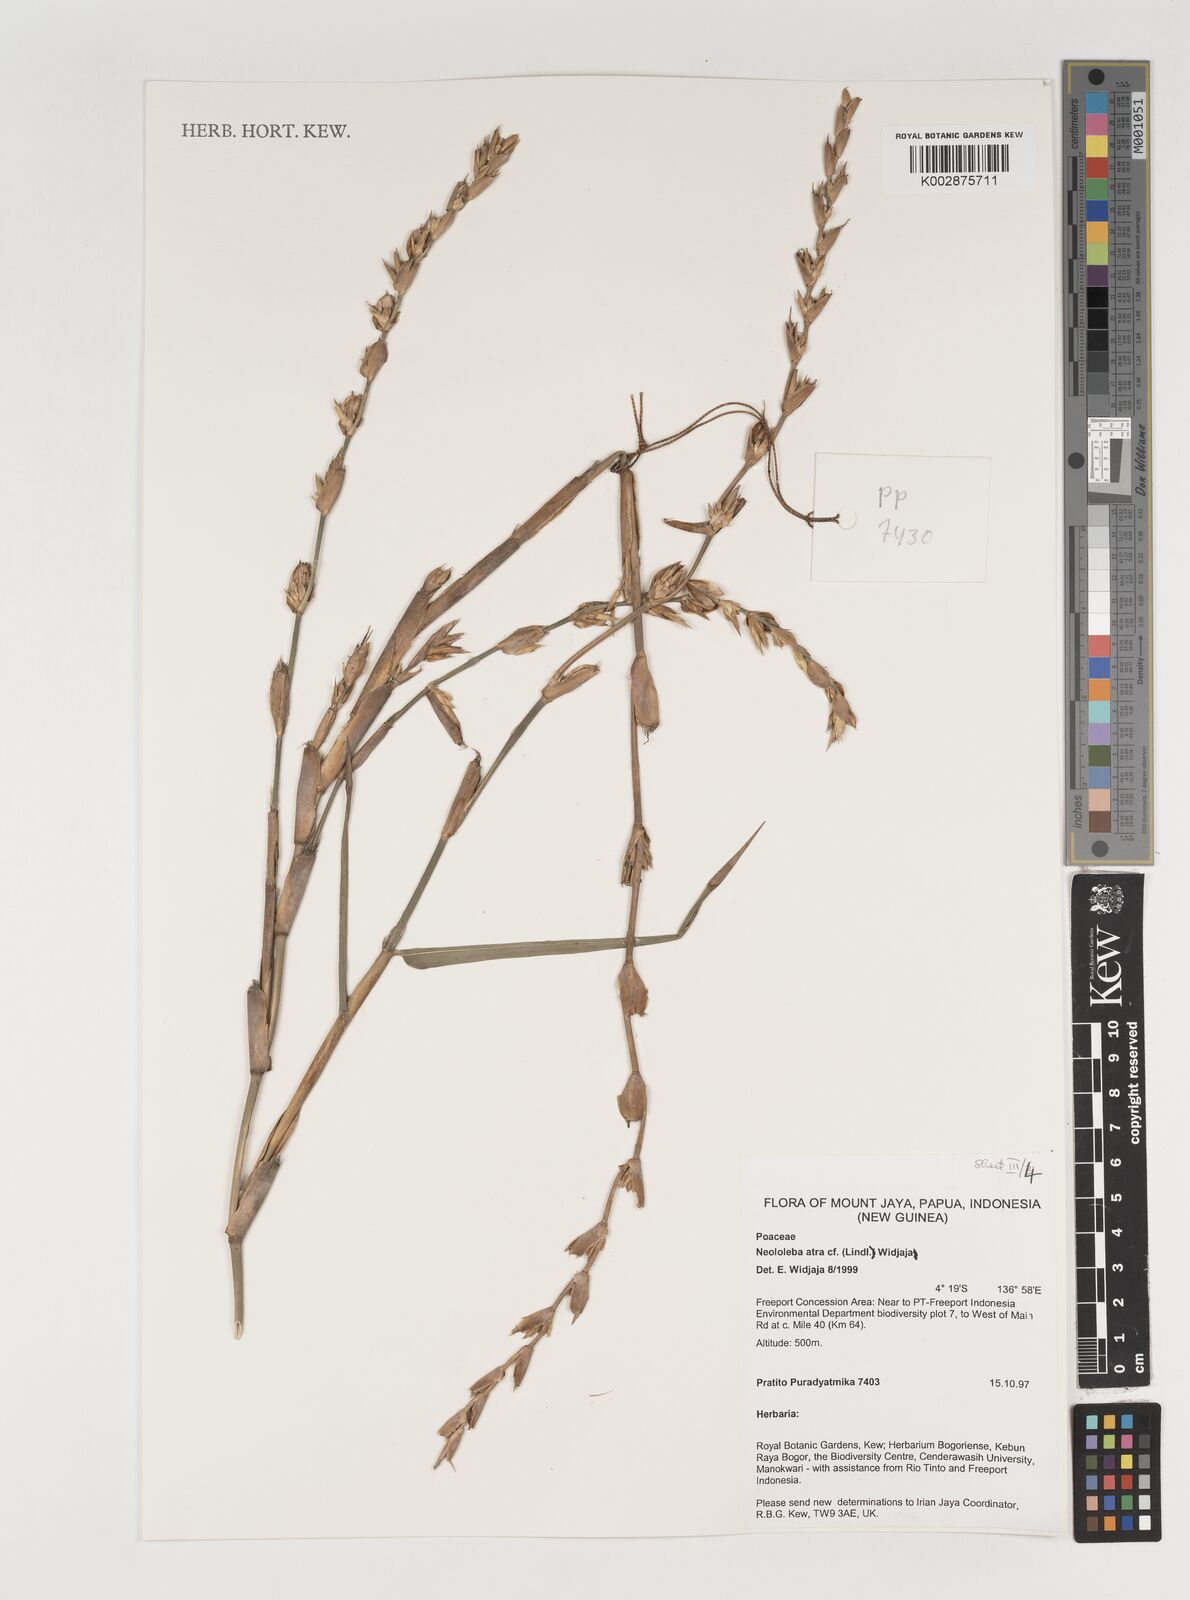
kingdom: Plantae
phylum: Tracheophyta
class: Liliopsida
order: Poales
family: Poaceae
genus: Neololeba
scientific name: Neololeba atra
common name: Cape bamboo
